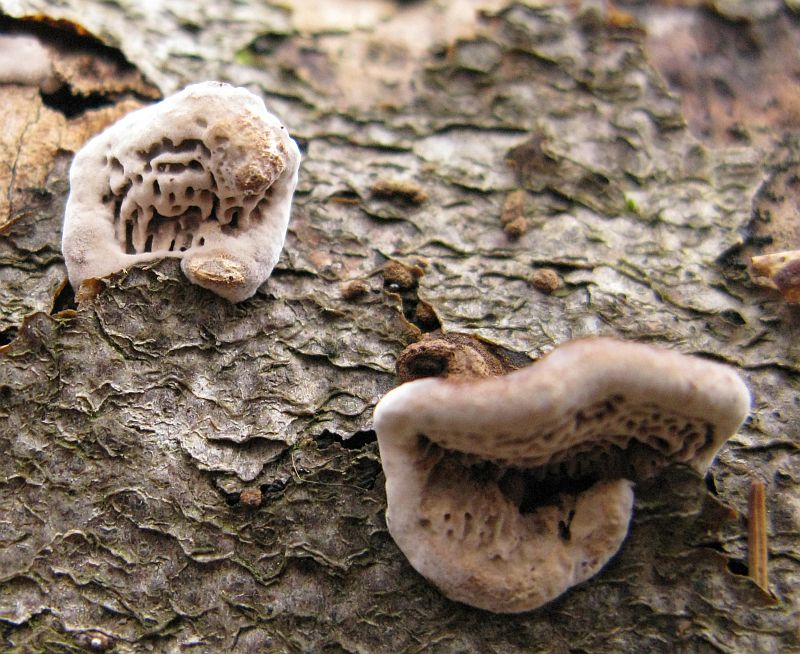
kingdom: Fungi
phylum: Basidiomycota
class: Agaricomycetes
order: Polyporales
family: Polyporaceae
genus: Podofomes
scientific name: Podofomes mollis
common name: blød begporesvamp
